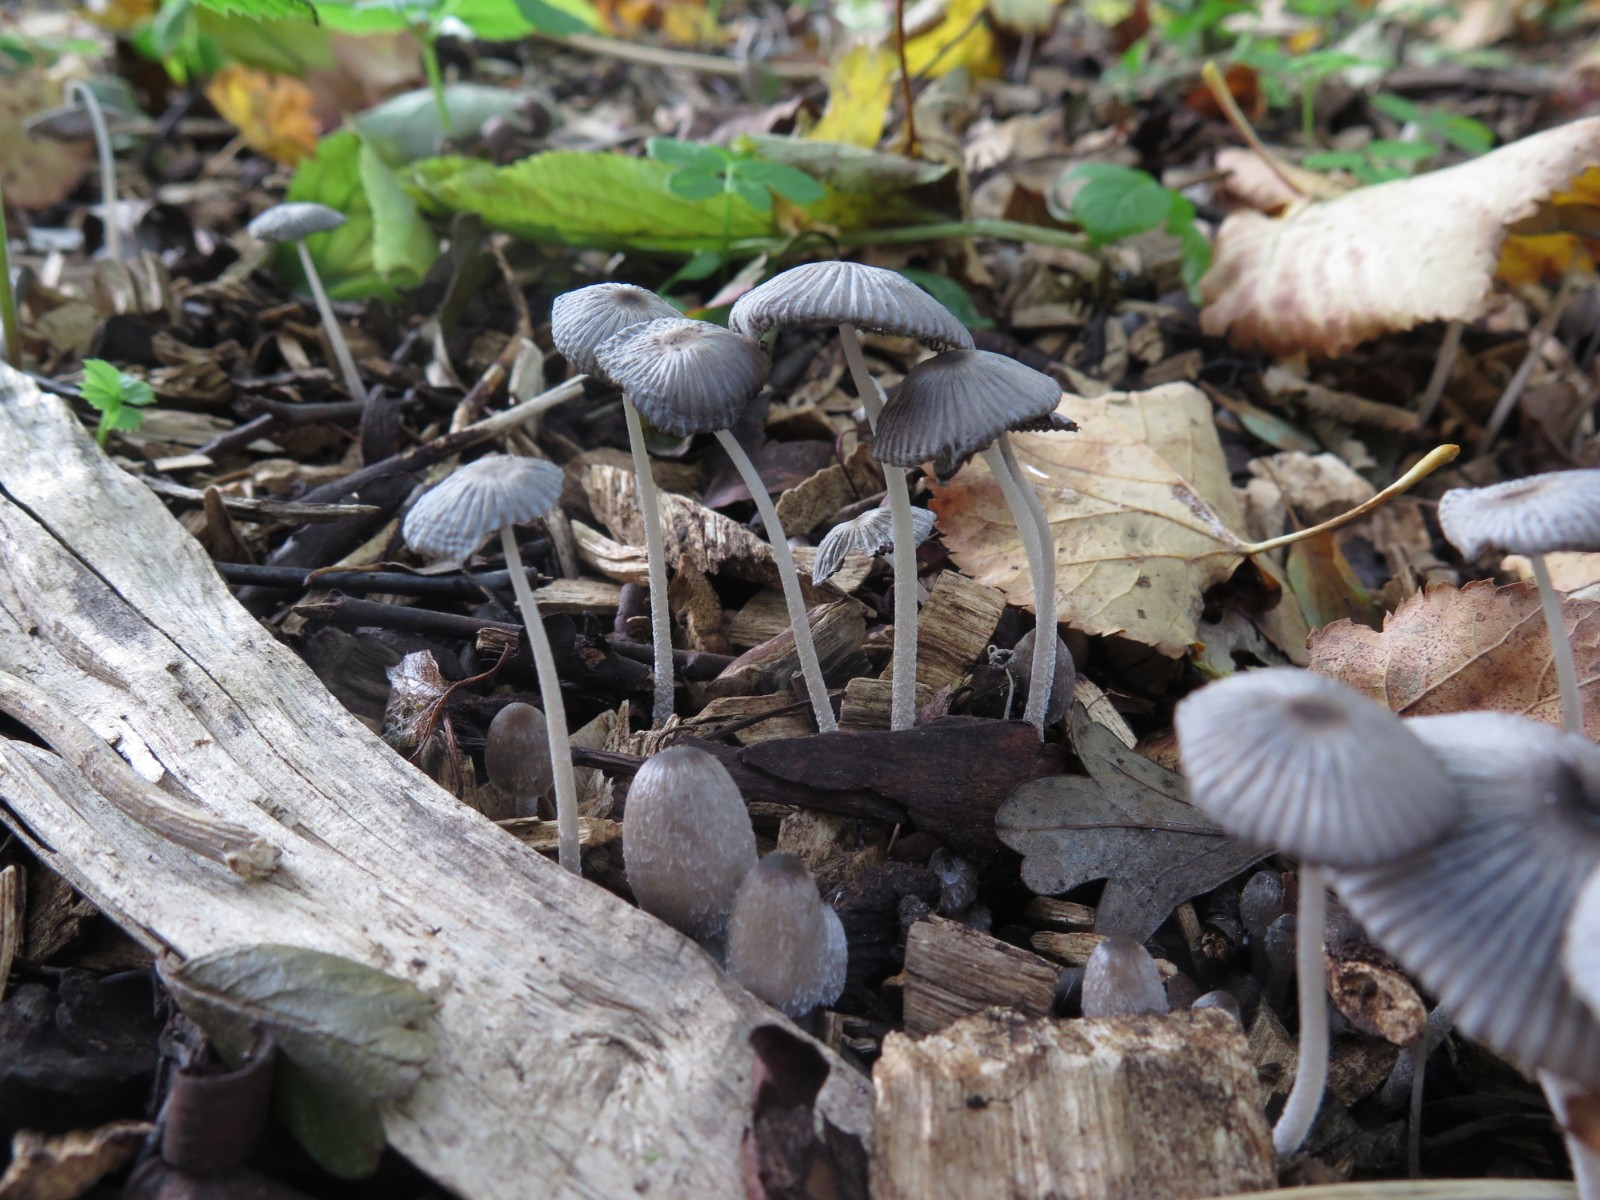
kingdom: Fungi
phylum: Basidiomycota
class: Agaricomycetes
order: Agaricales
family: Psathyrellaceae
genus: Coprinopsis
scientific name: Coprinopsis lagopus
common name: dunstokket blækhat
